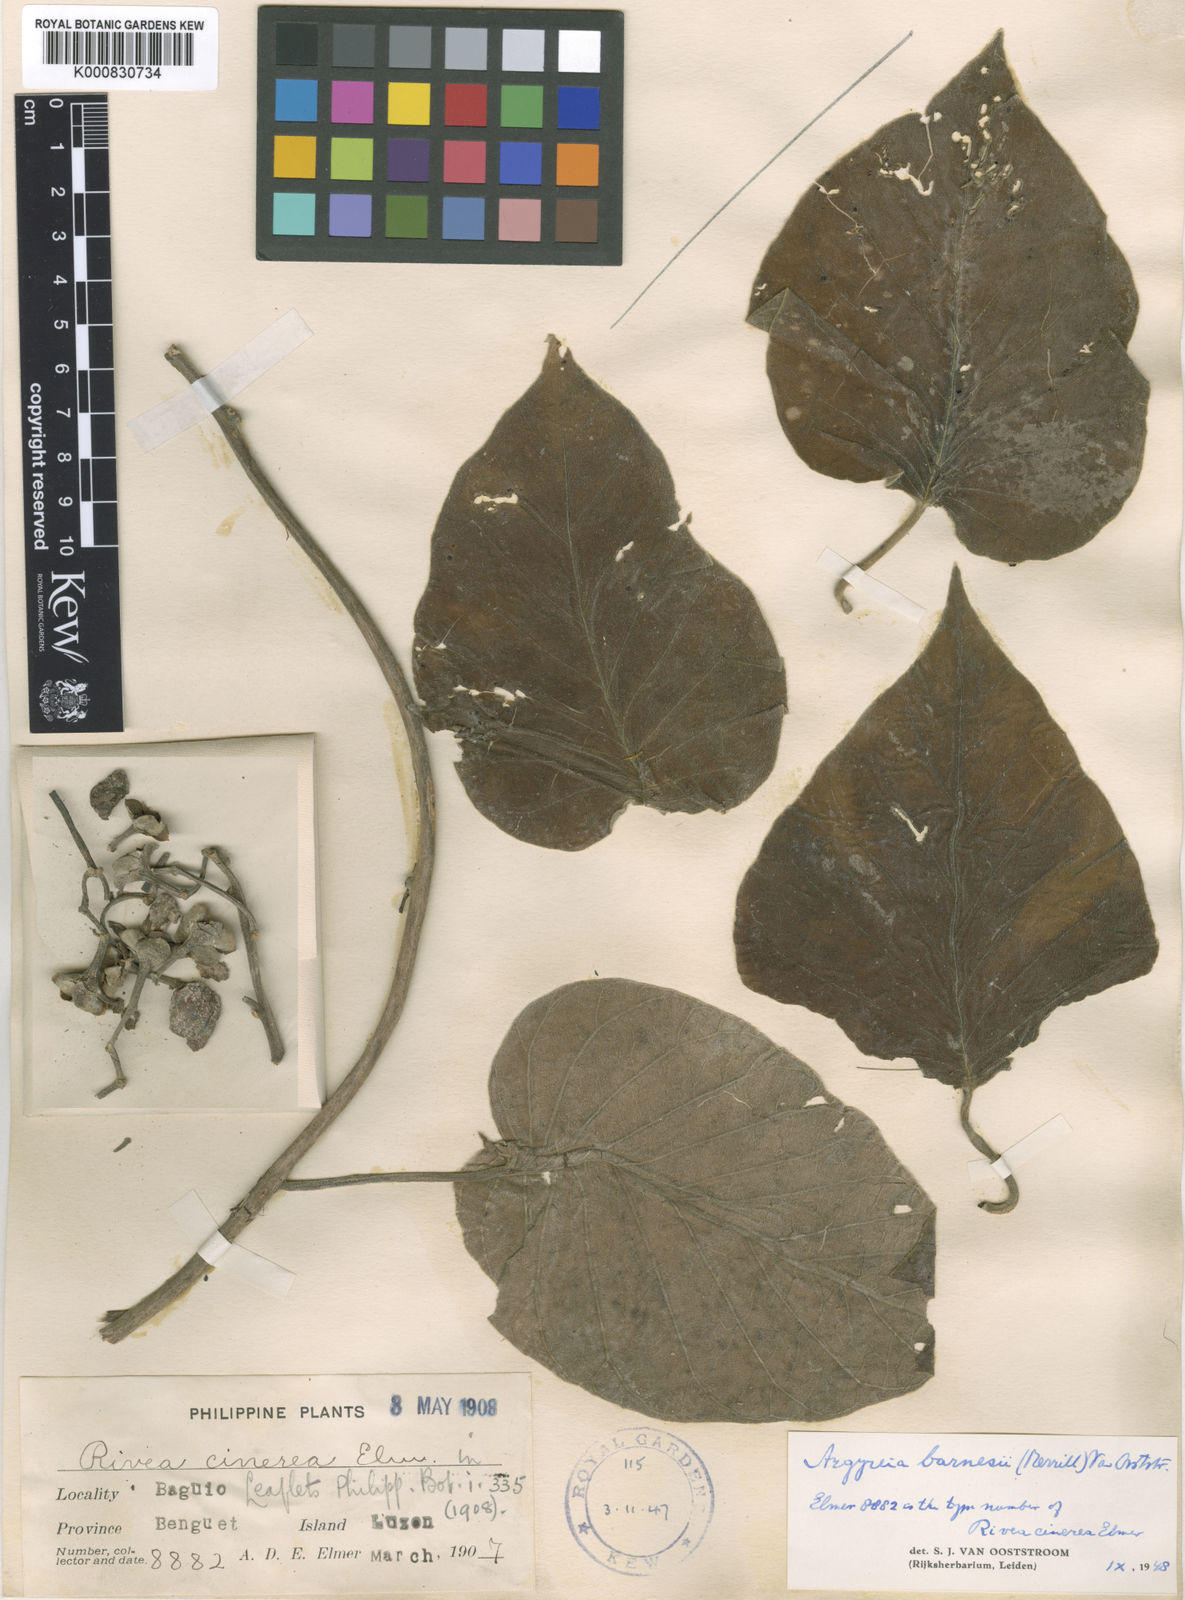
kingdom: Plantae
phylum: Tracheophyta
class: Magnoliopsida
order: Solanales
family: Convolvulaceae
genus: Argyreia
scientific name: Argyreia barnesii
